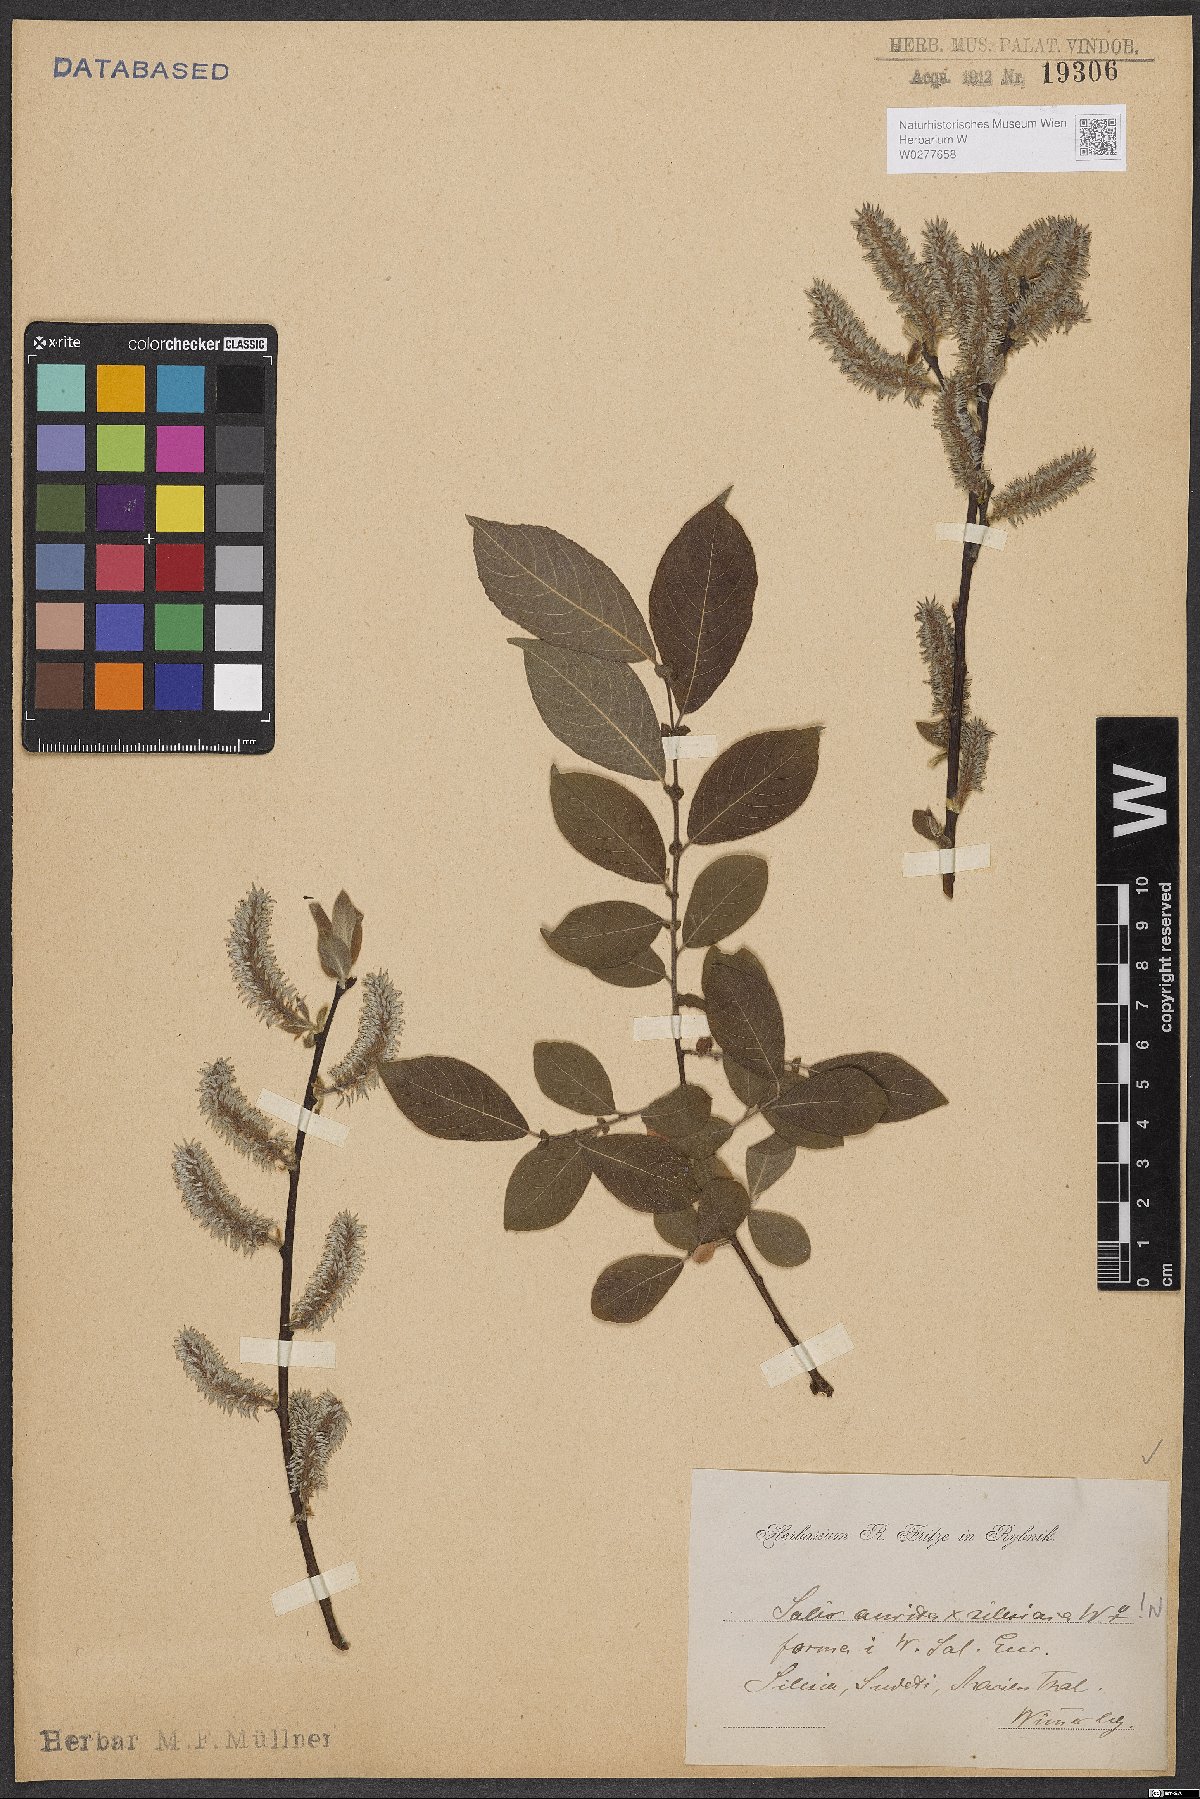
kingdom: Plantae
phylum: Tracheophyta
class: Magnoliopsida
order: Malpighiales
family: Salicaceae
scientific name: Salicaceae
